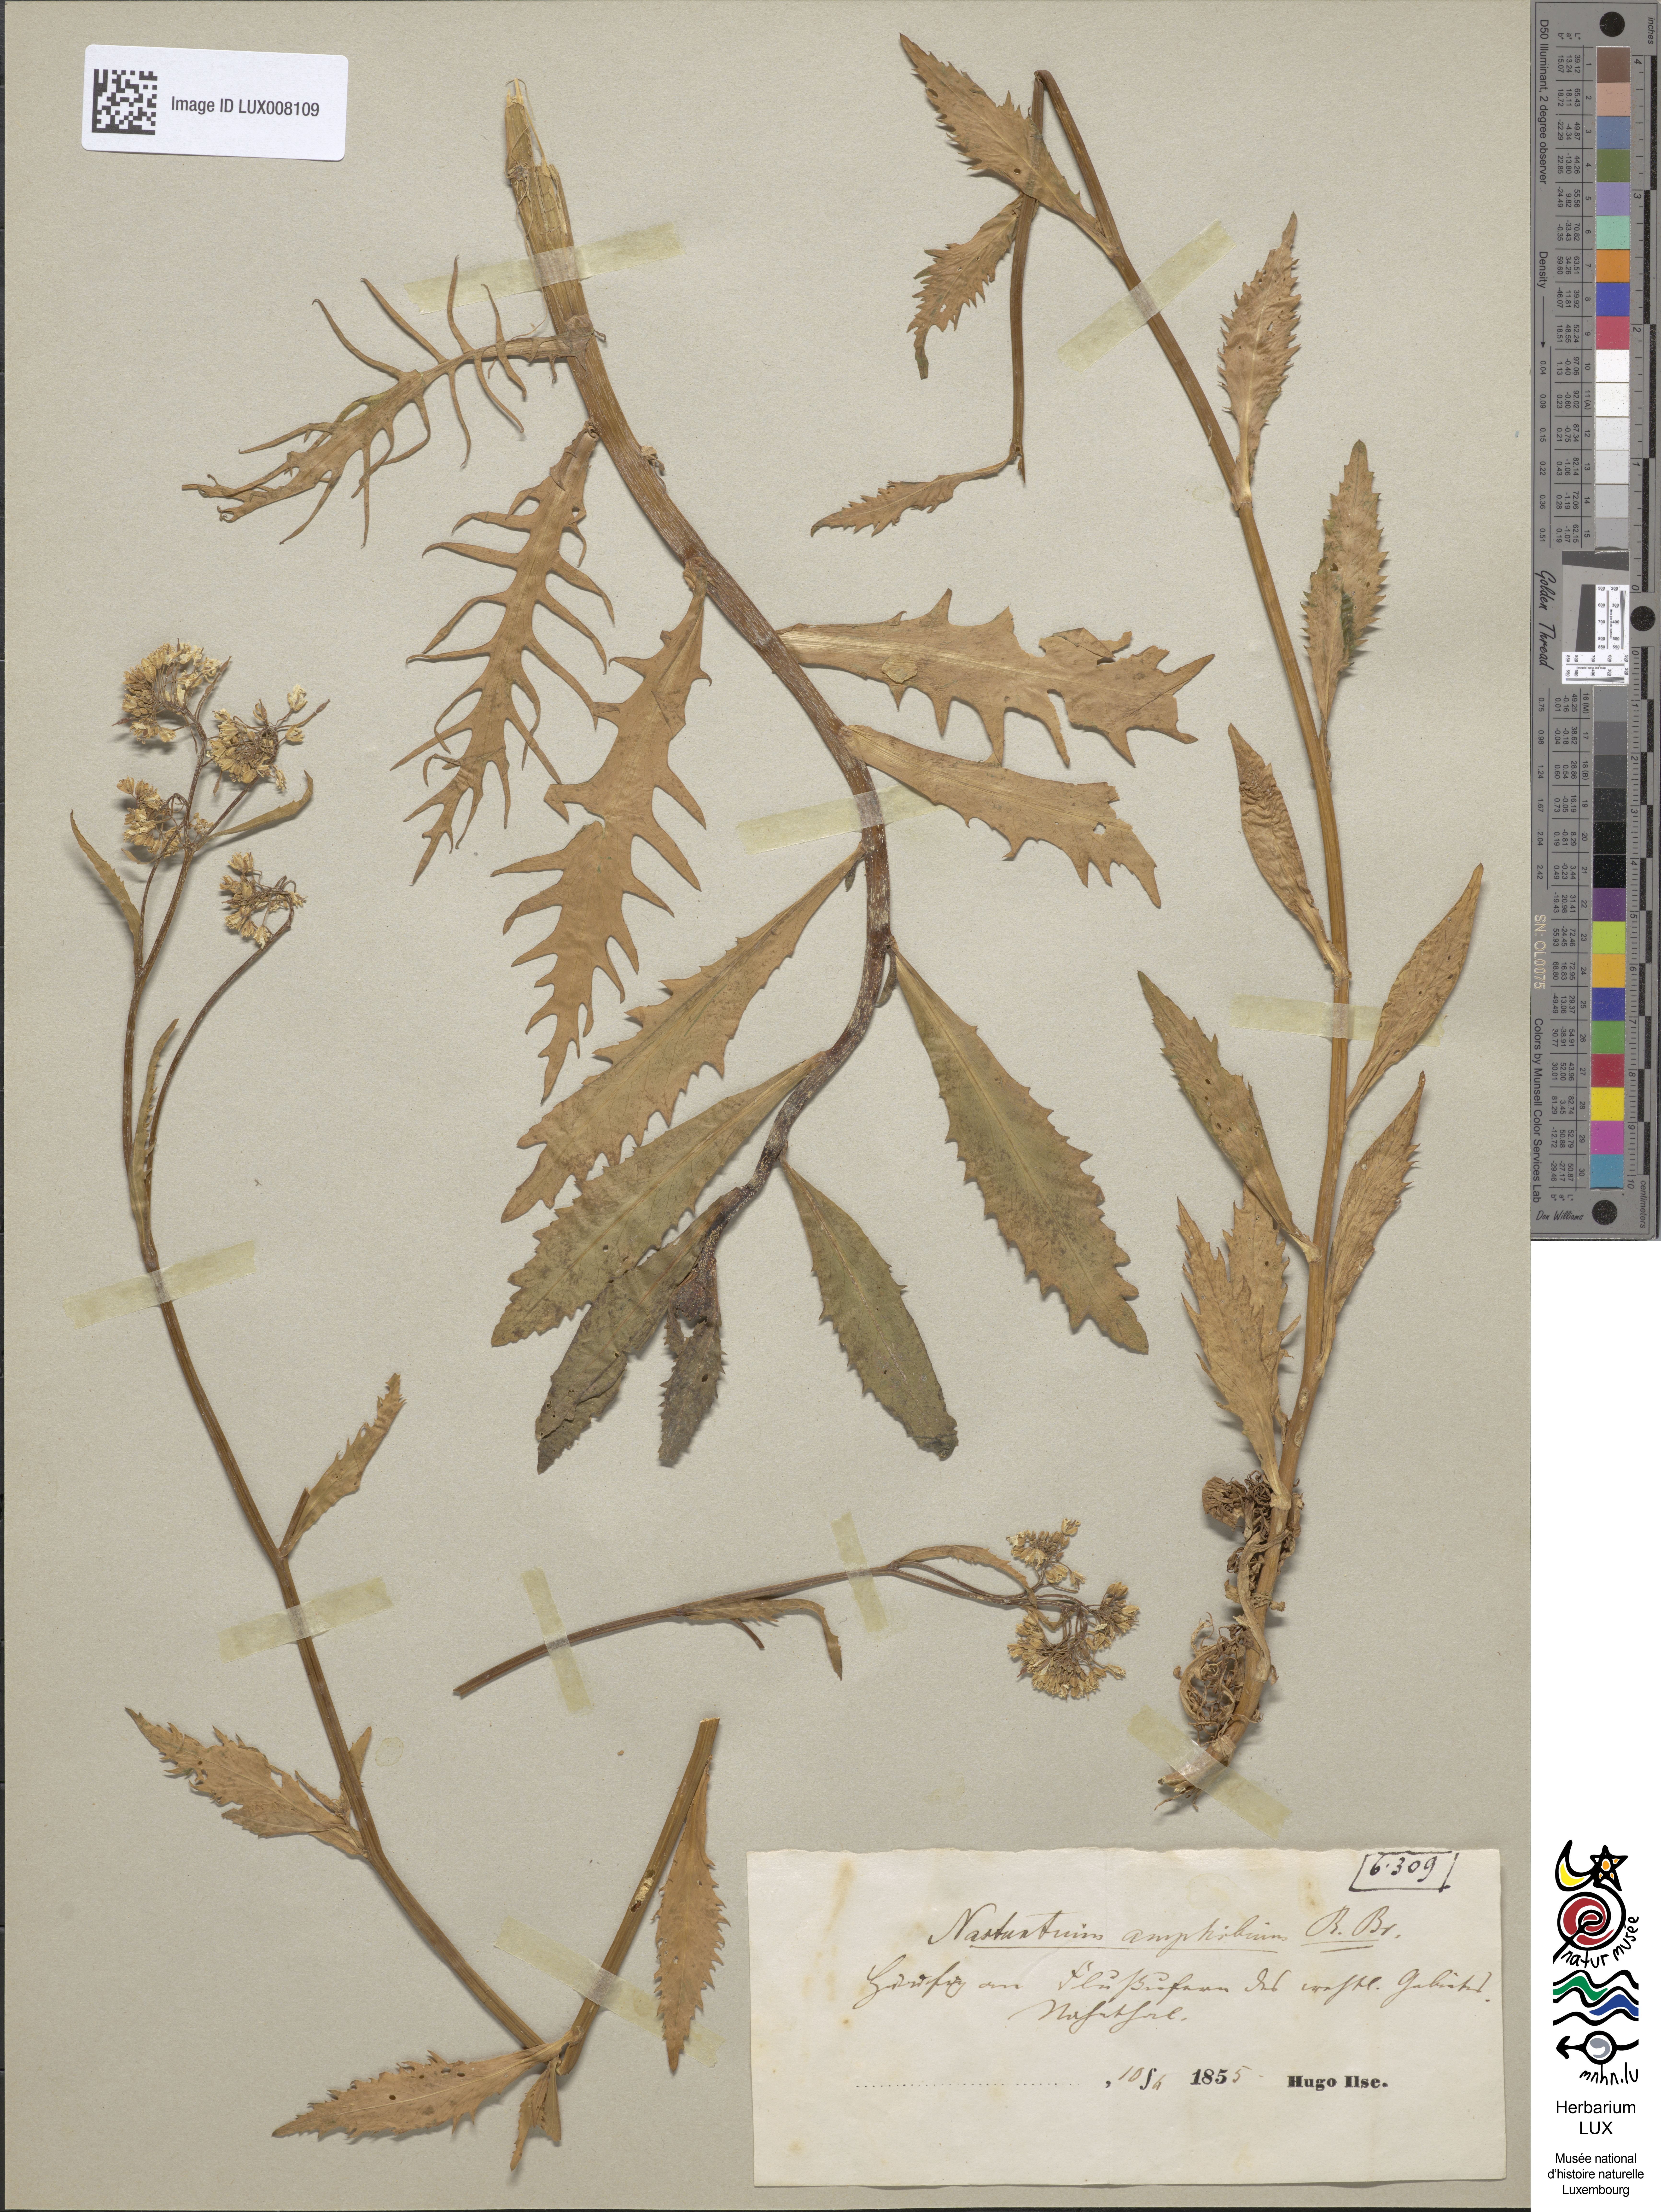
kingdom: Plantae
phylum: Tracheophyta
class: Magnoliopsida
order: Brassicales
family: Brassicaceae
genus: Rorippa
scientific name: Rorippa amphibia
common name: Great yellow-cress
